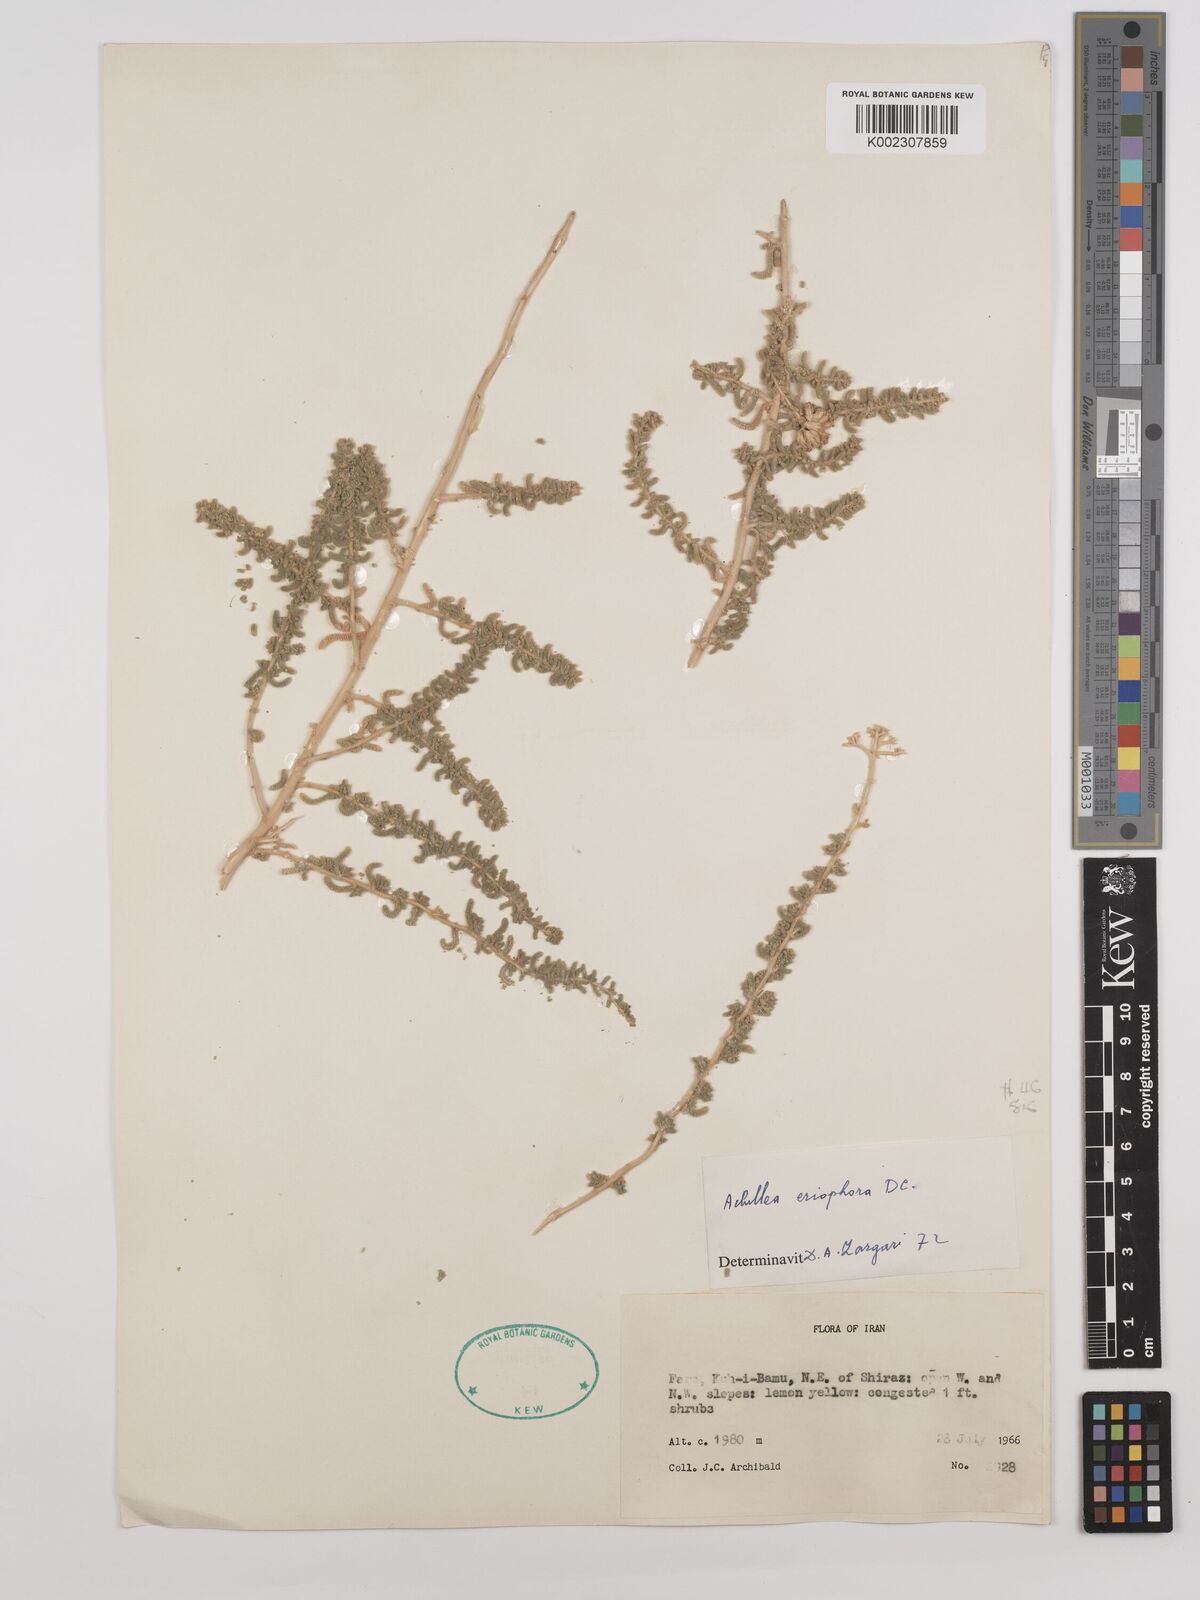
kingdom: Plantae
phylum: Tracheophyta
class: Magnoliopsida
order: Asterales
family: Asteraceae
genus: Achillea
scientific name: Achillea wilhelmsii
